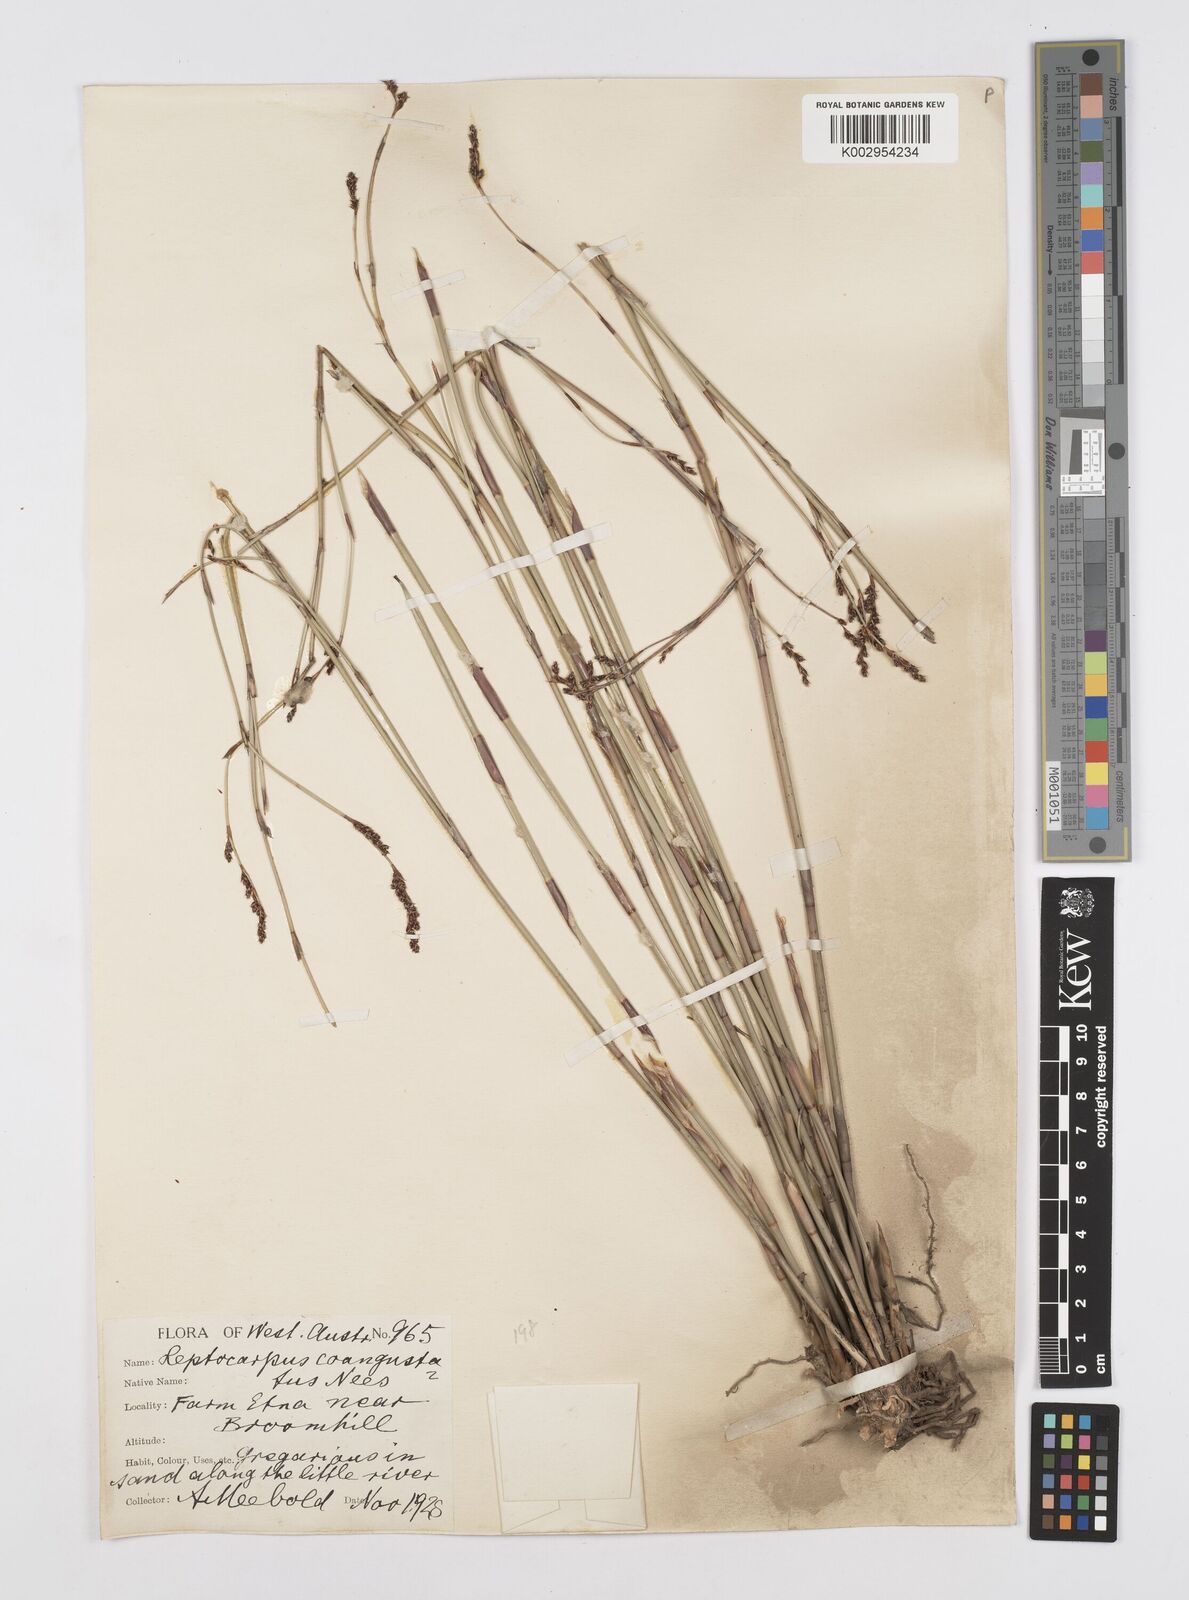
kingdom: Plantae
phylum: Tracheophyta
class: Liliopsida
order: Poales
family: Restionaceae
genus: Leptocarpus
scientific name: Leptocarpus coangustatus
